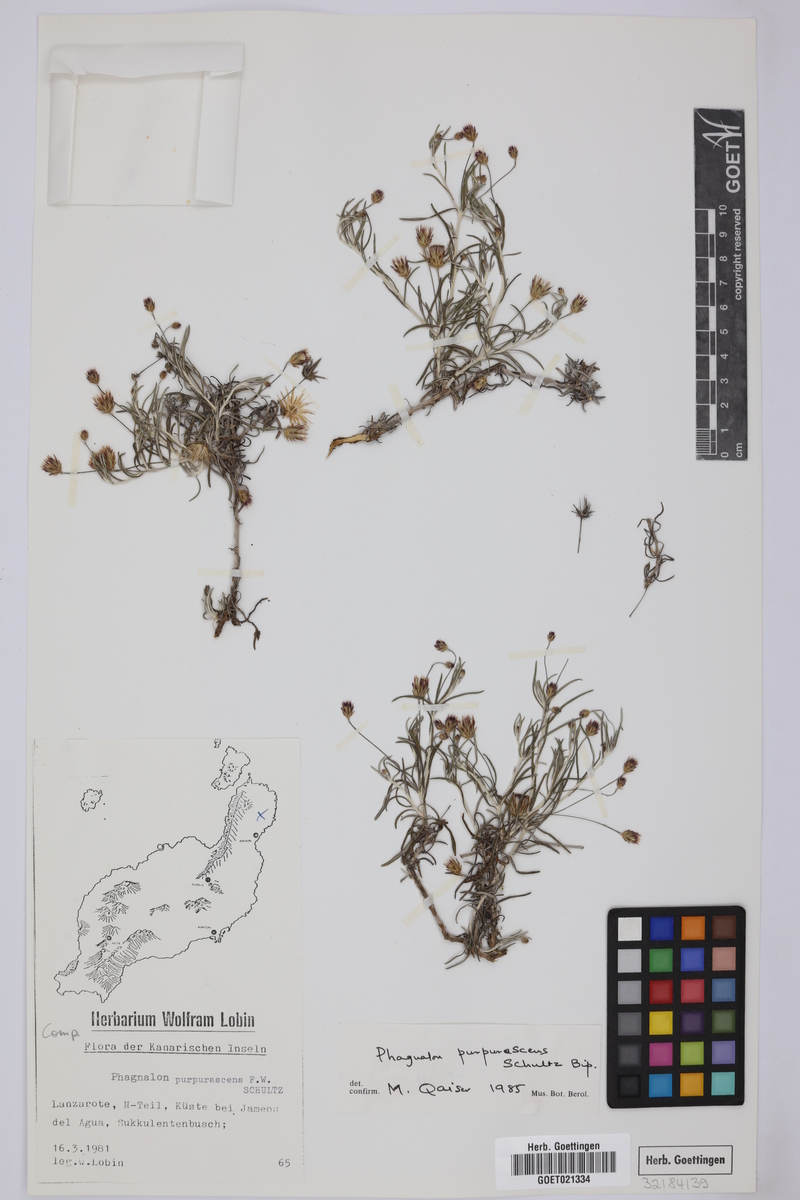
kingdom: Plantae
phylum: Tracheophyta
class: Magnoliopsida
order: Asterales
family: Asteraceae
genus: Phagnalon
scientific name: Phagnalon purpurascens
